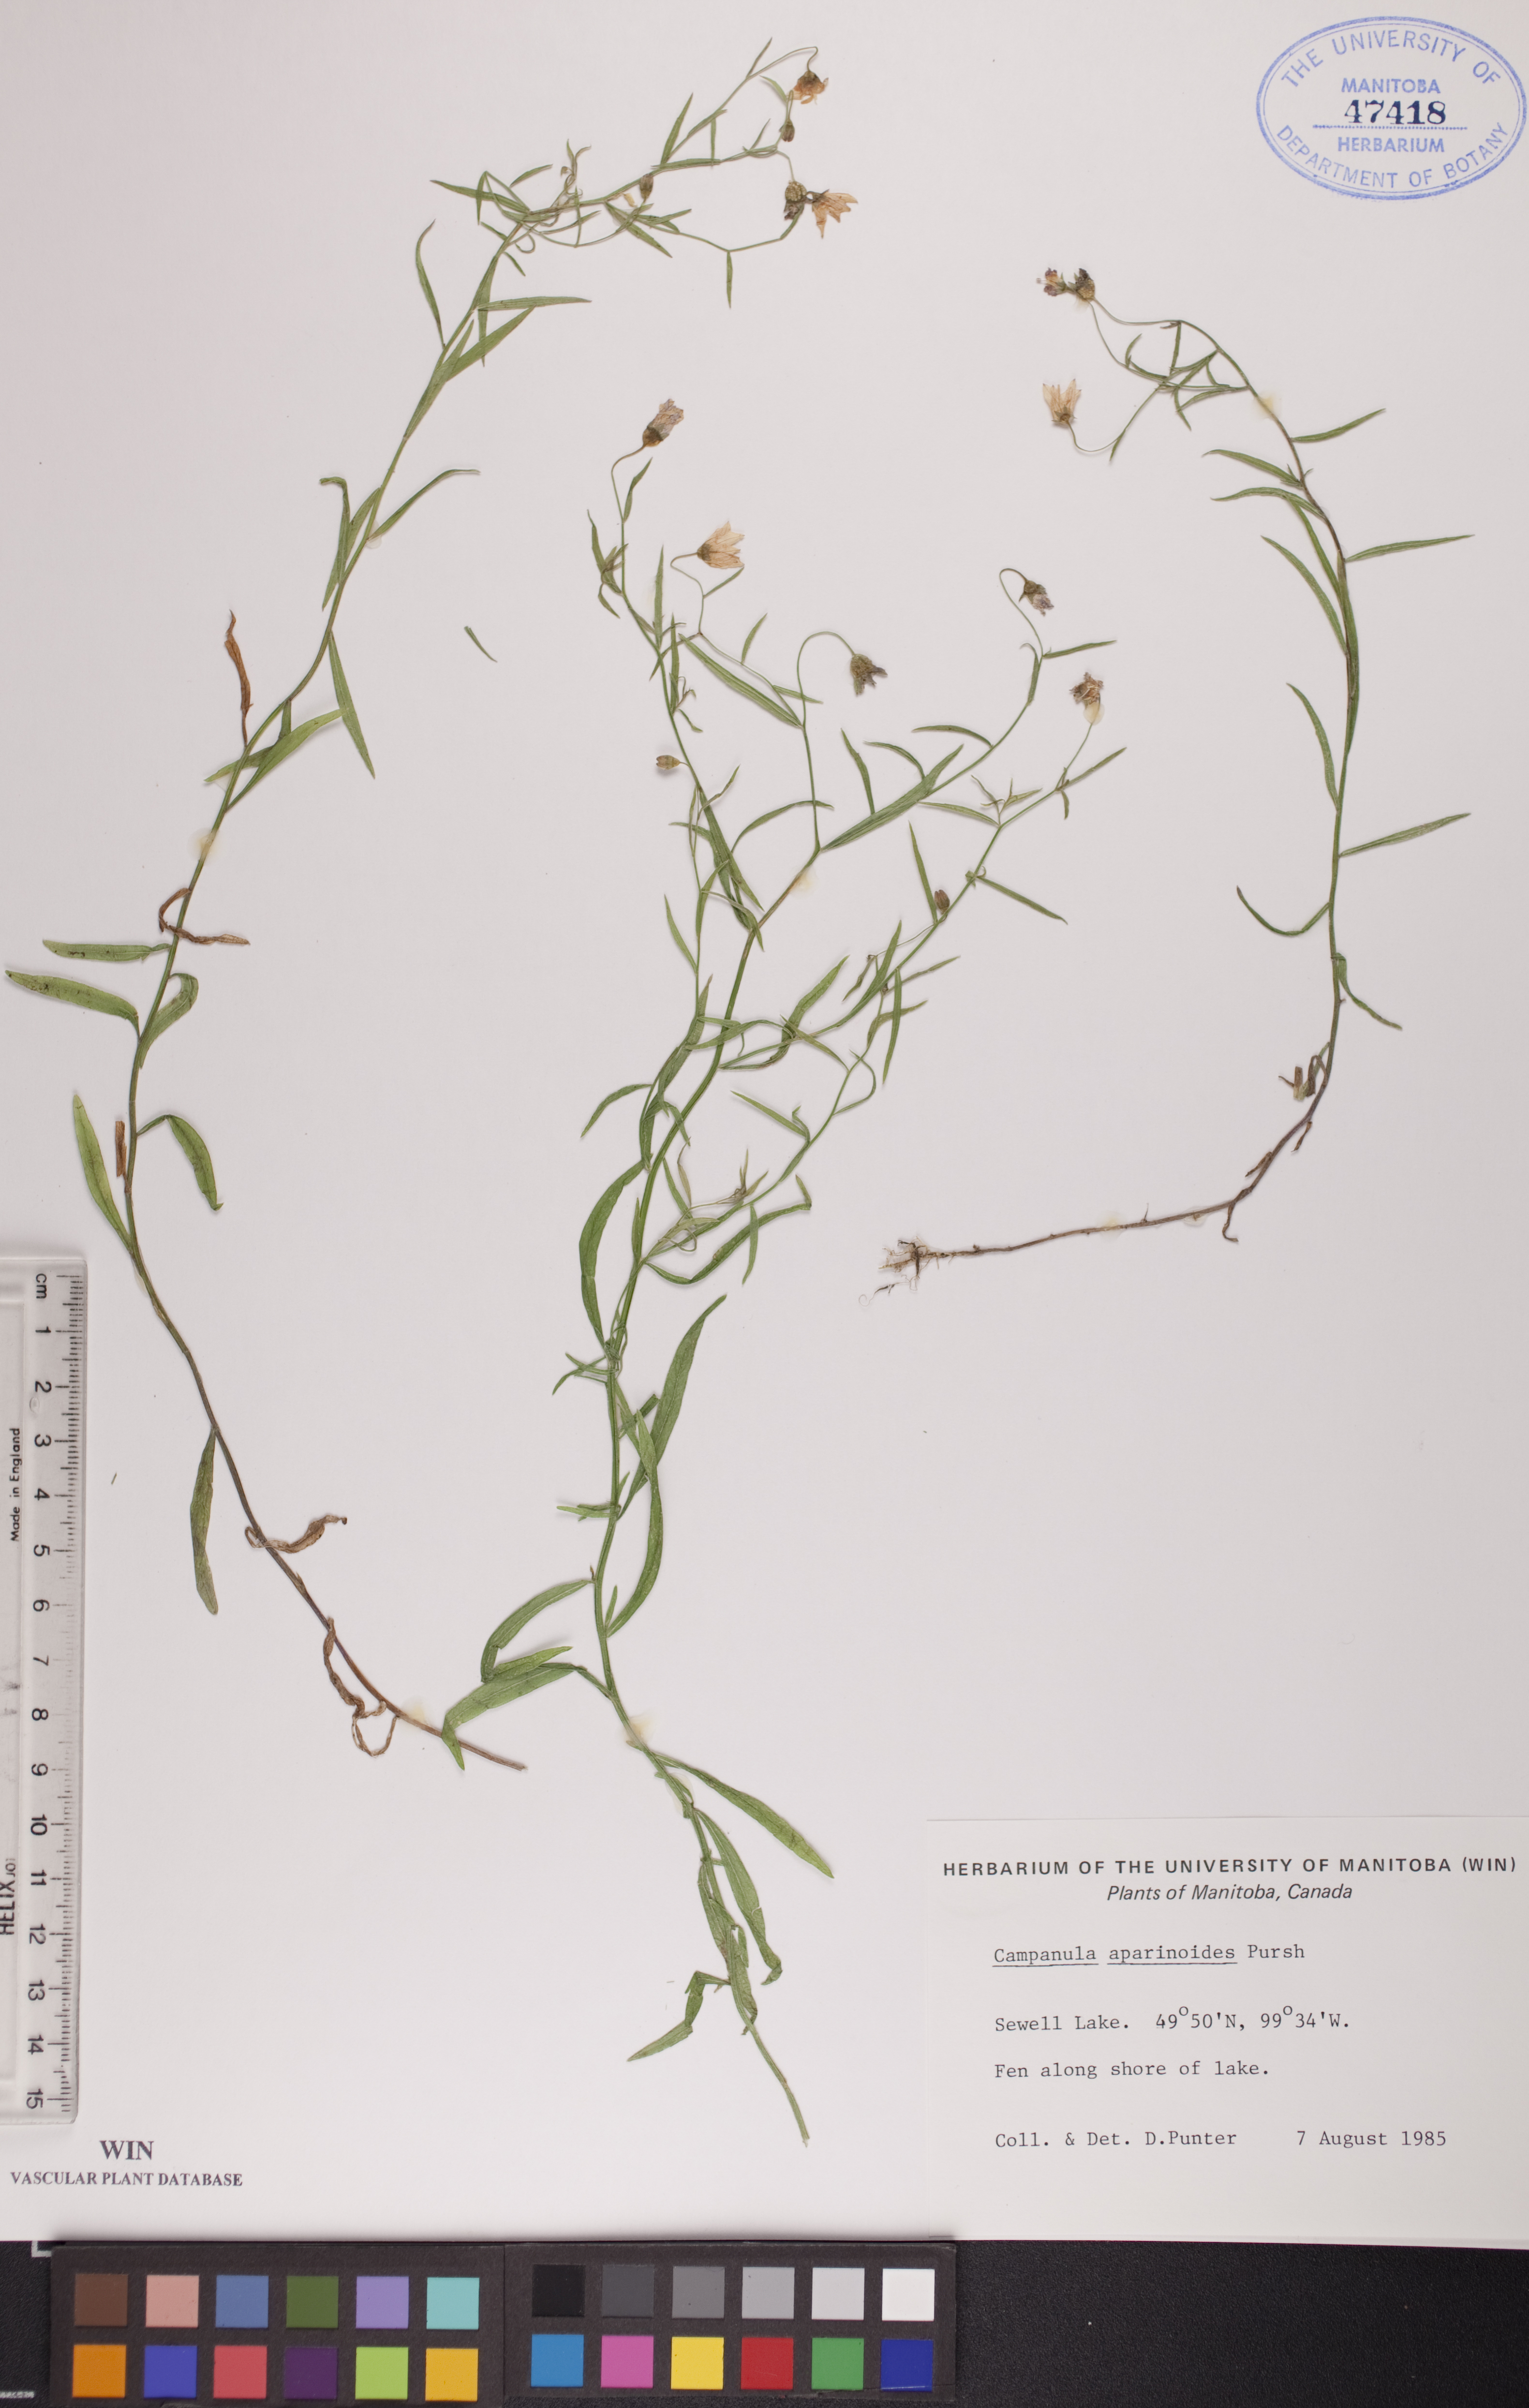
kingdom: Plantae
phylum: Tracheophyta
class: Magnoliopsida
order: Asterales
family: Campanulaceae
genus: Palustricodon
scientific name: Palustricodon aparinoides
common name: Bedstraw bellflower
